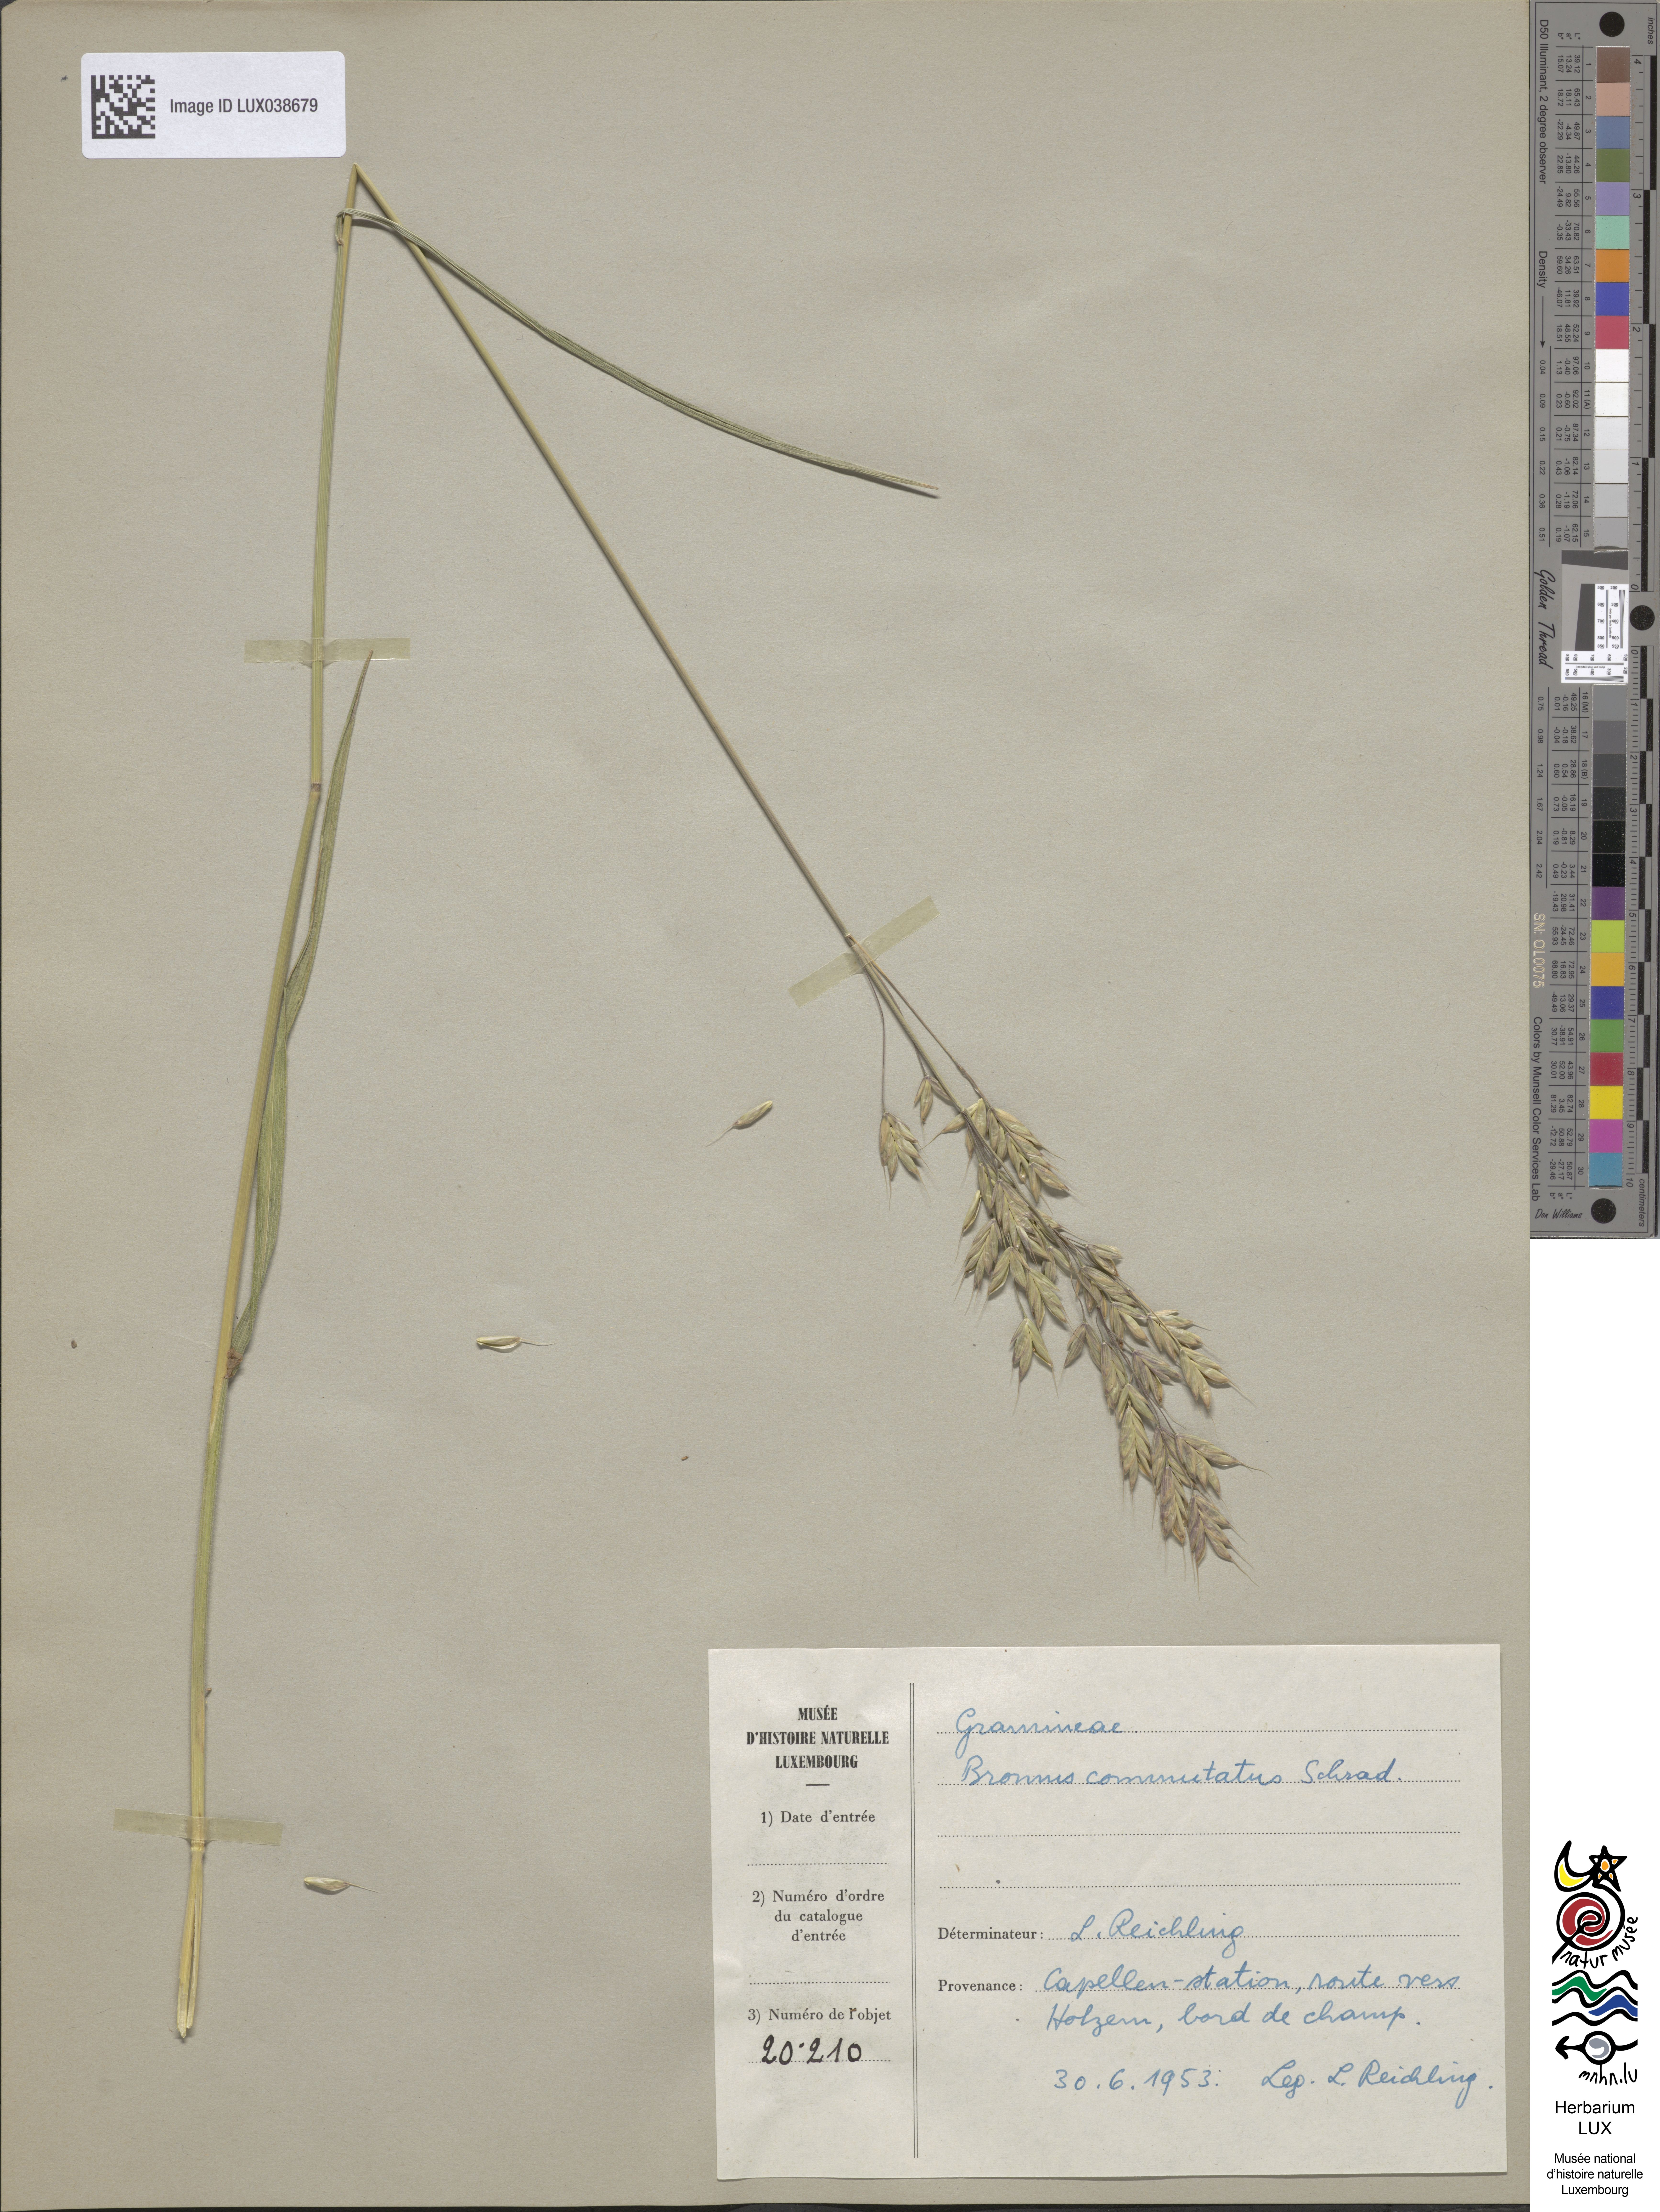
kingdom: Plantae
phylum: Tracheophyta
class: Liliopsida
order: Poales
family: Poaceae
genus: Bromus
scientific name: Bromus commutatus
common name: Meadow brome
